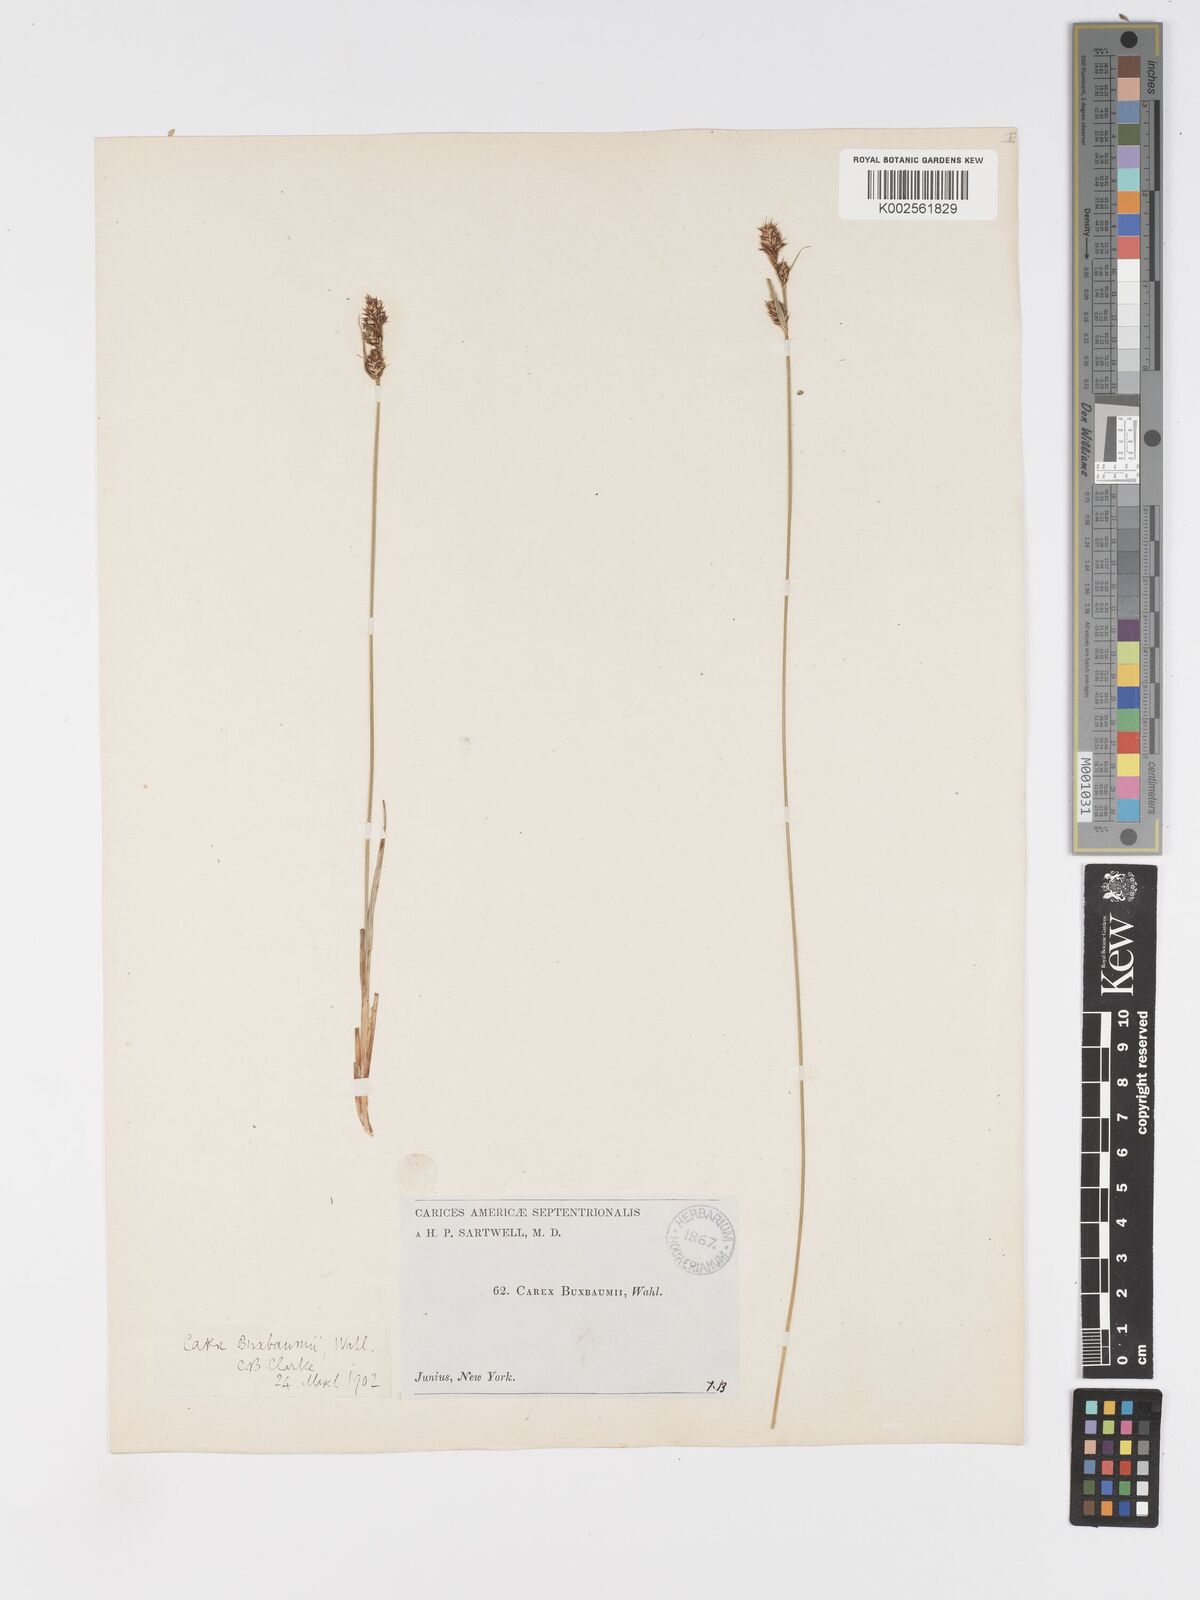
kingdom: Plantae
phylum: Tracheophyta
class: Liliopsida
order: Poales
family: Cyperaceae
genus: Carex
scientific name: Carex buxbaumii
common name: Club sedge
